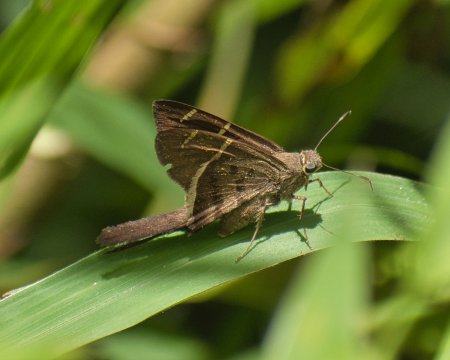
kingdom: Animalia
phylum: Arthropoda
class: Insecta
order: Lepidoptera
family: Hesperiidae
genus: Urbanus
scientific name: Urbanus tanna
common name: Tanna Longtail
